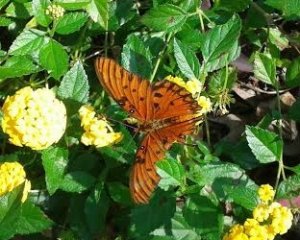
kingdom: Animalia
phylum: Arthropoda
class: Insecta
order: Lepidoptera
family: Nymphalidae
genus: Dione
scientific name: Dione vanillae
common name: Gulf Fritillary
